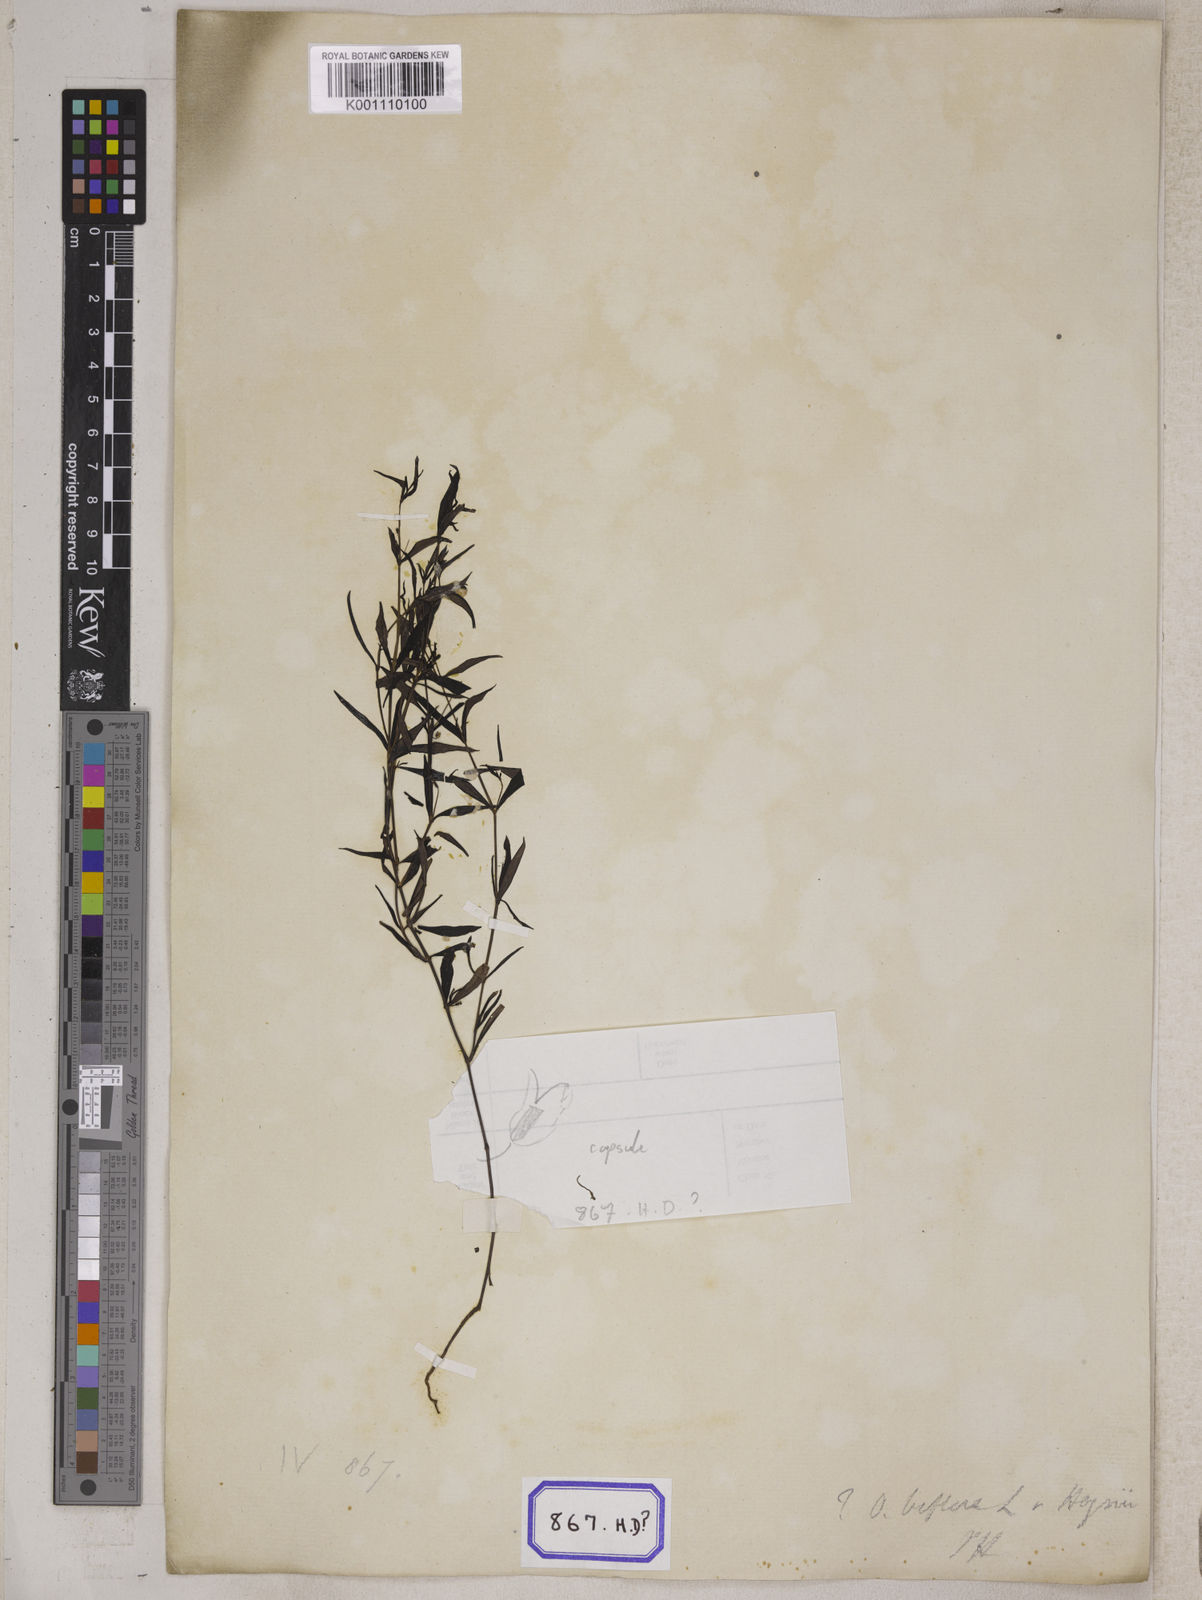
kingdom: Plantae
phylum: Tracheophyta
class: Magnoliopsida
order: Gentianales
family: Rubiaceae
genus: Hedyotis
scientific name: Hedyotis
